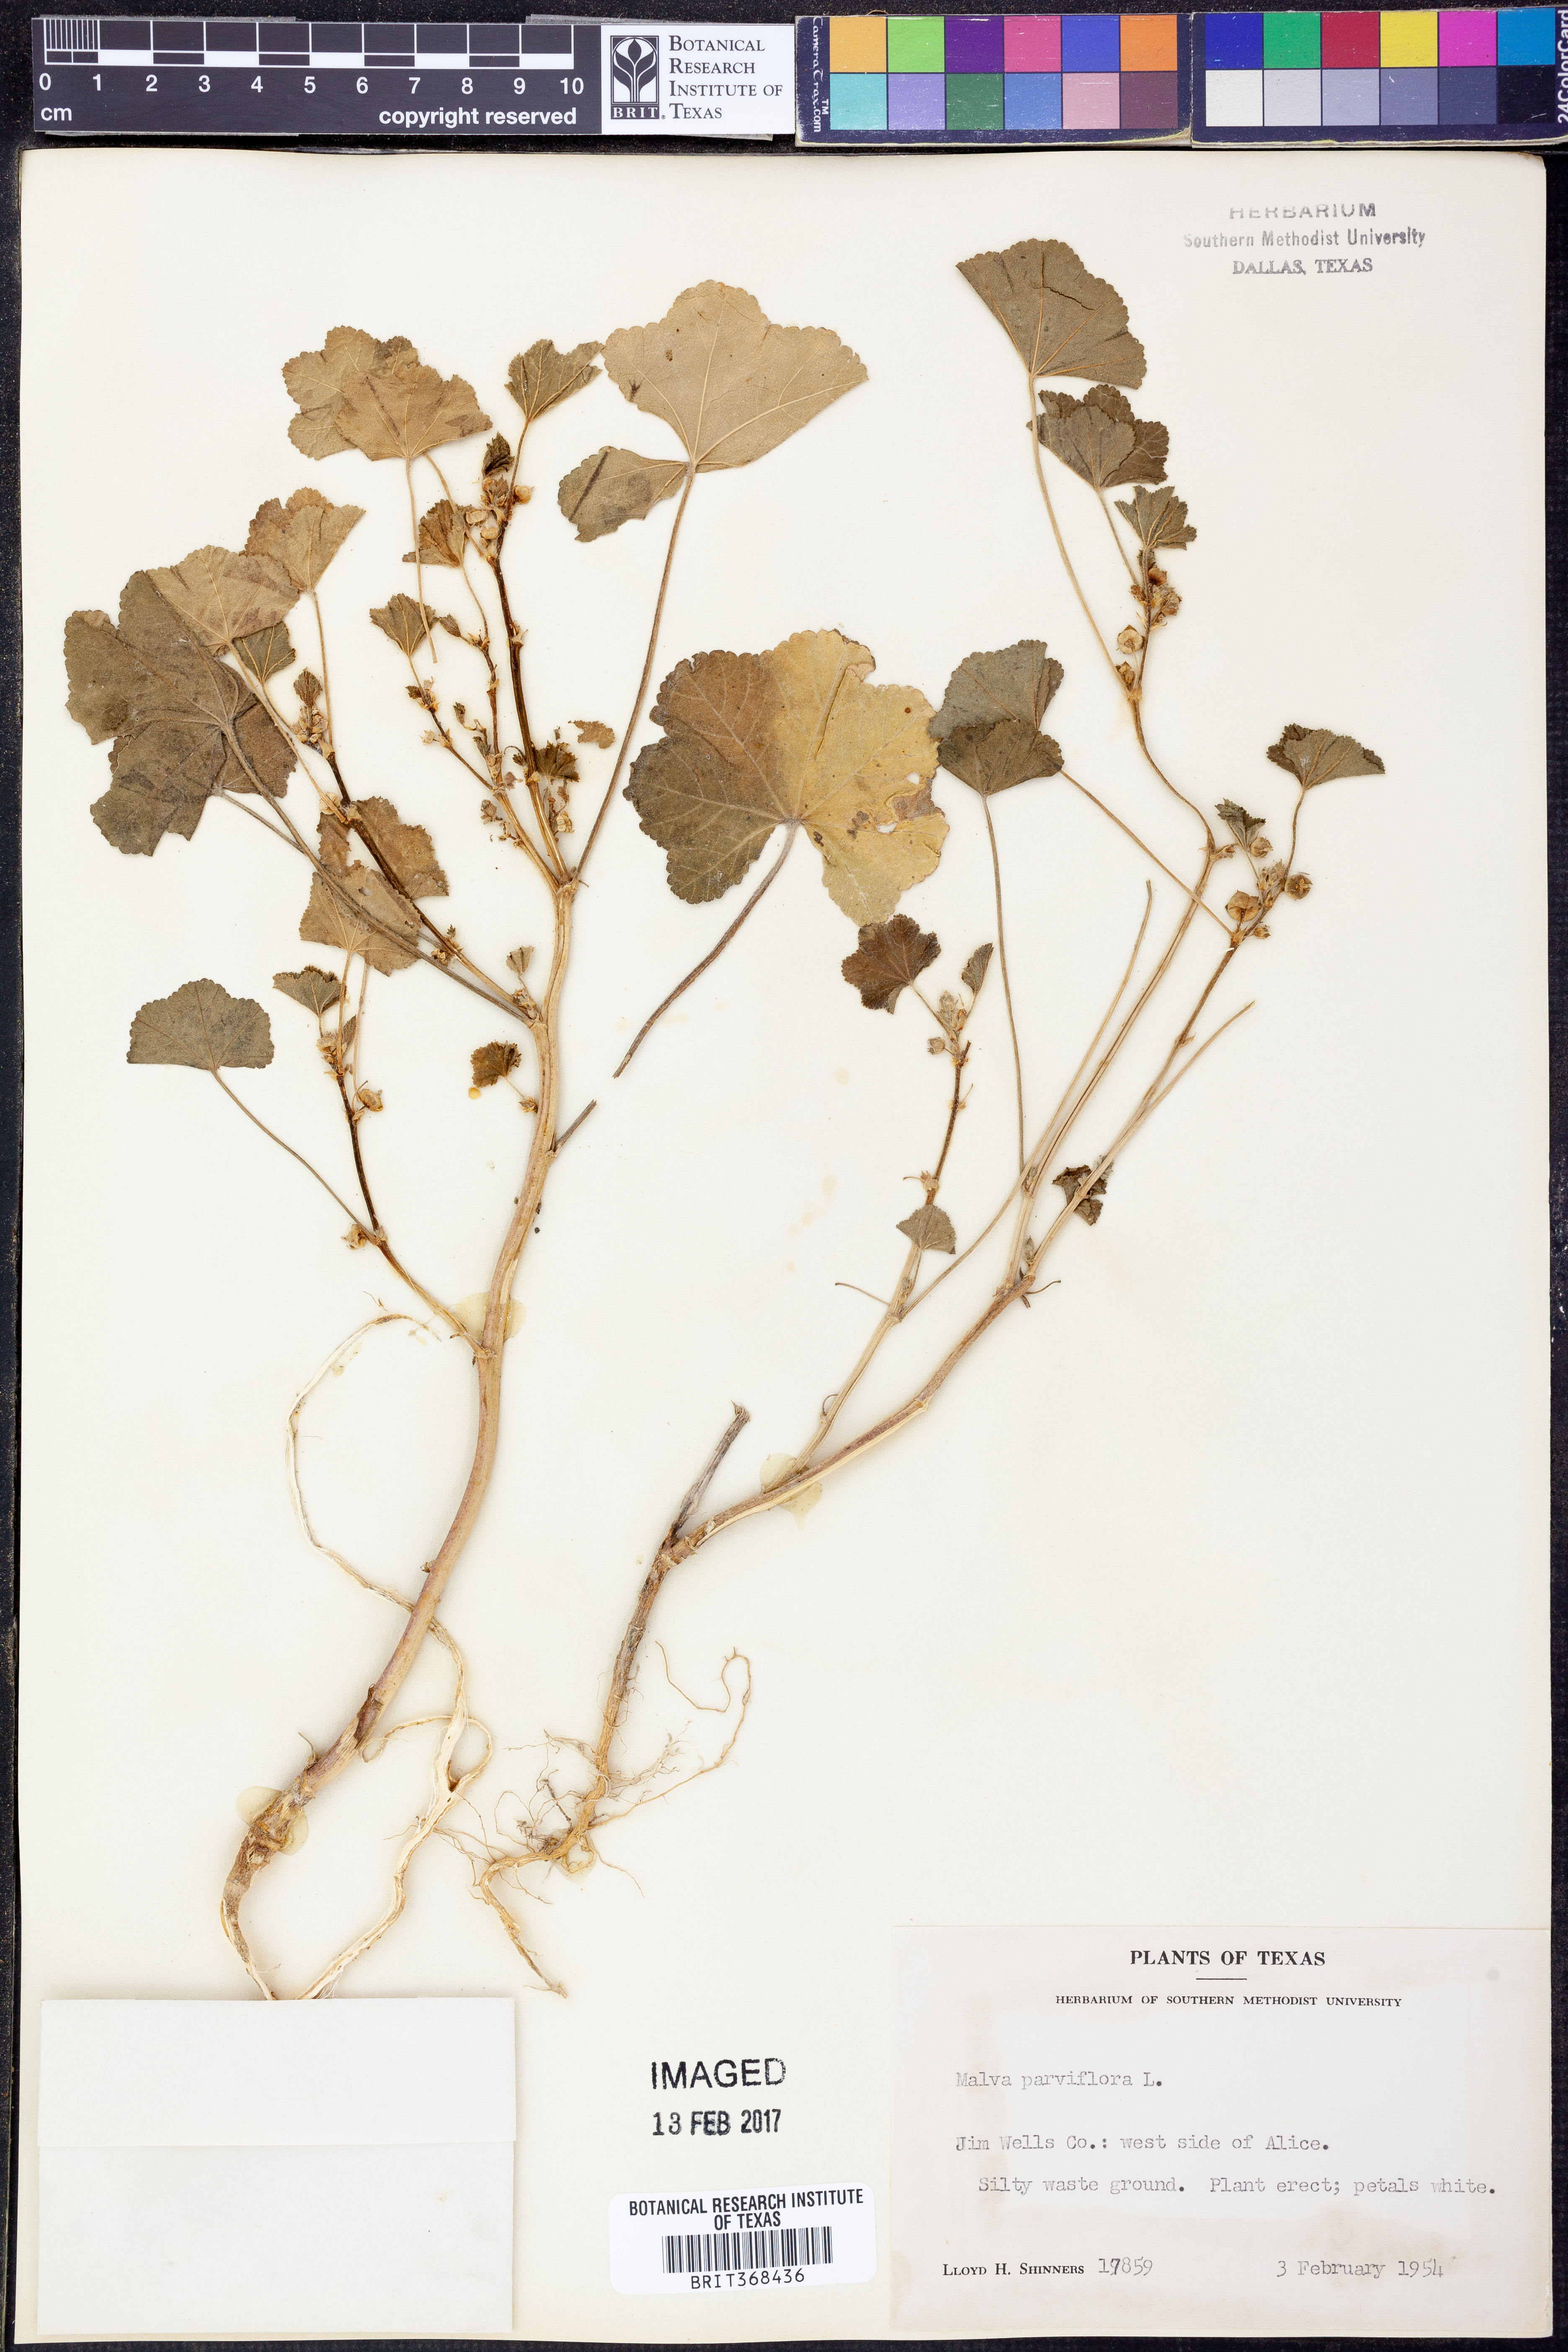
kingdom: Plantae
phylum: Tracheophyta
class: Magnoliopsida
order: Malvales
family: Malvaceae
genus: Malva
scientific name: Malva parviflora
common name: Least mallow
